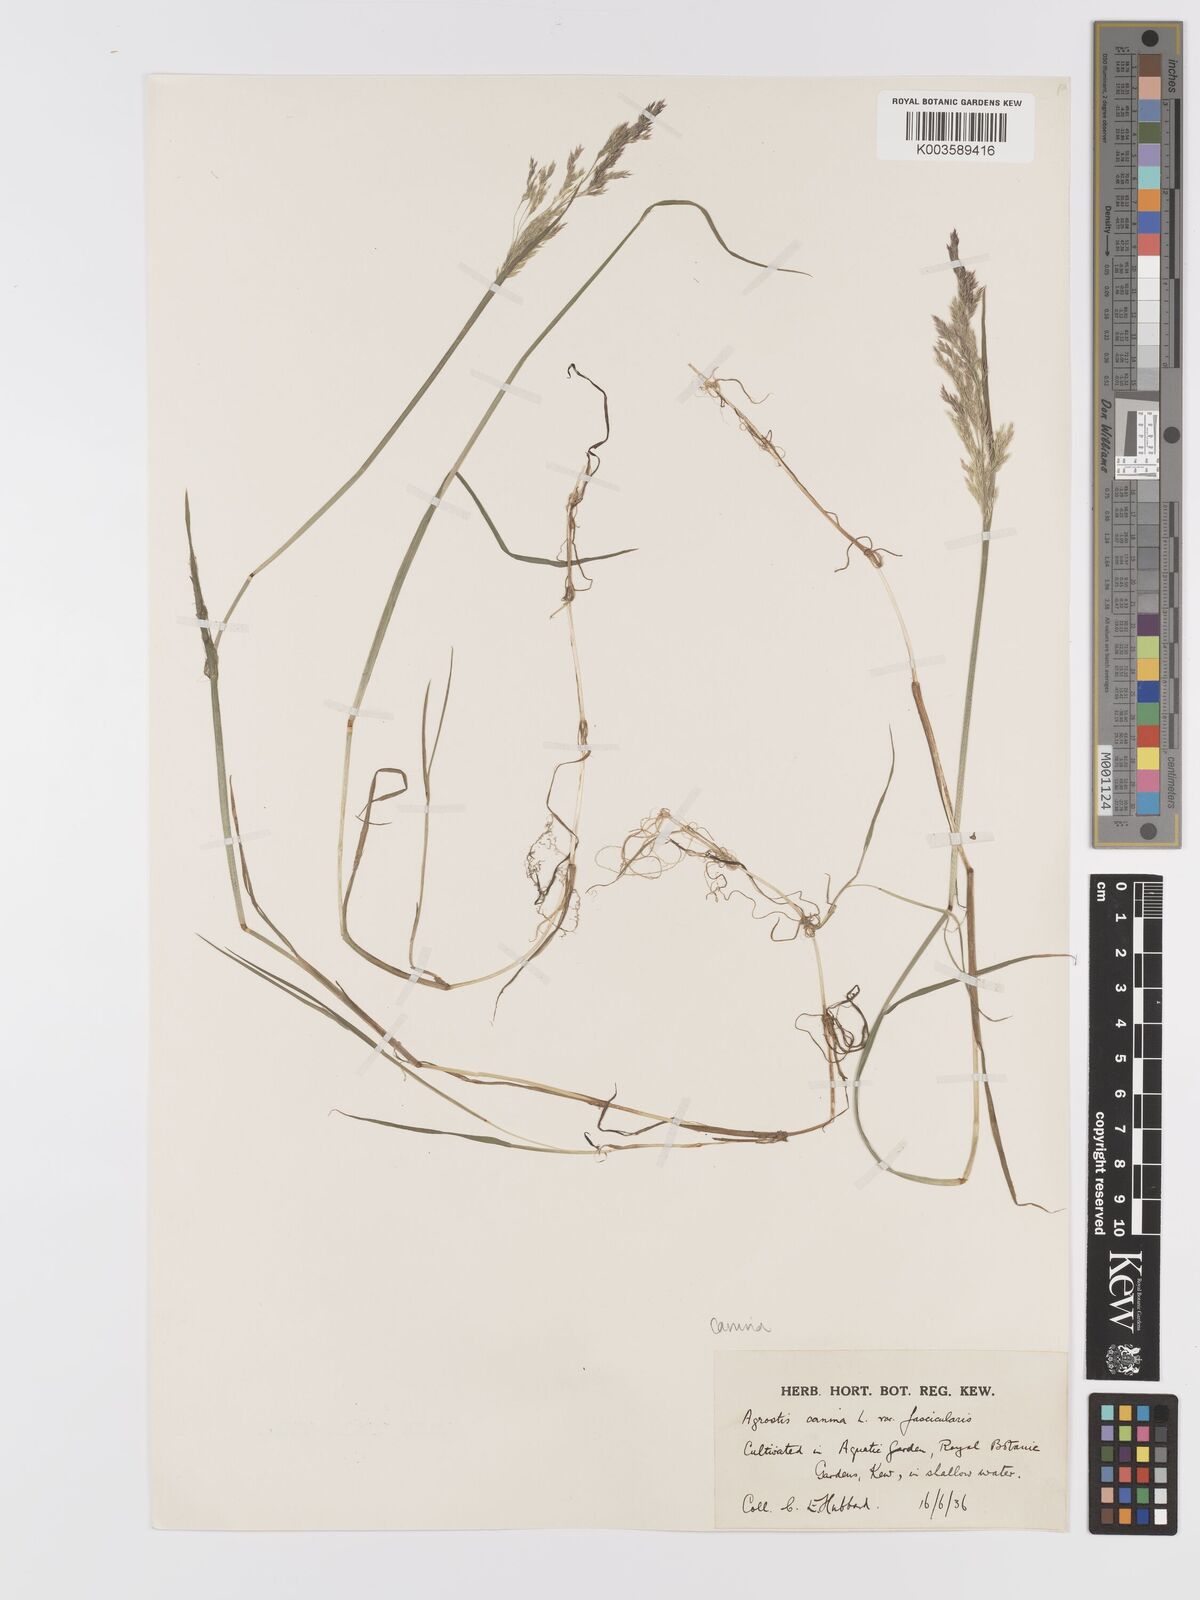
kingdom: Plantae
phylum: Tracheophyta
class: Liliopsida
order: Poales
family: Poaceae
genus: Agrostis
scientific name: Agrostis canina
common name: Velvet bent
